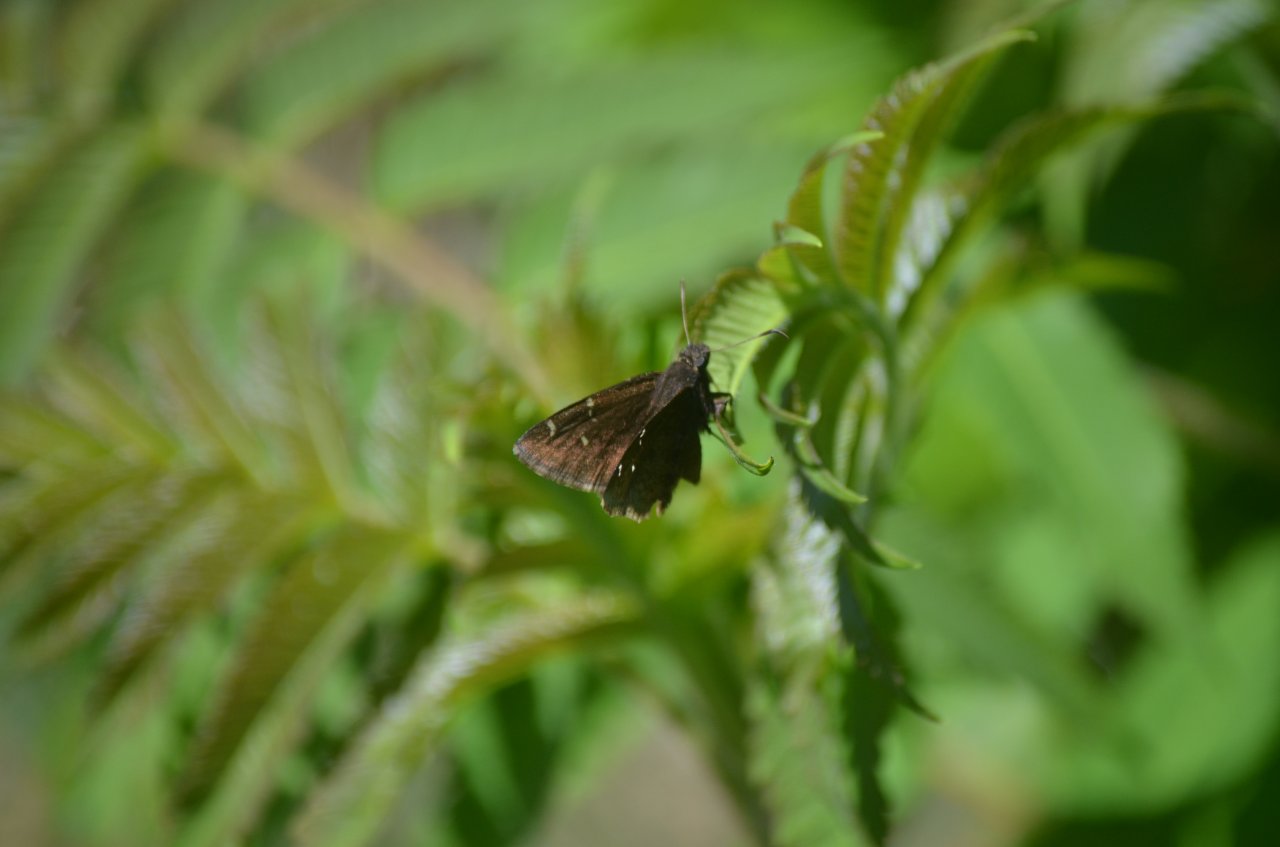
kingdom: Animalia
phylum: Arthropoda
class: Insecta
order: Lepidoptera
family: Hesperiidae
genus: Autochton
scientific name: Autochton
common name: Northern Cloudywing
